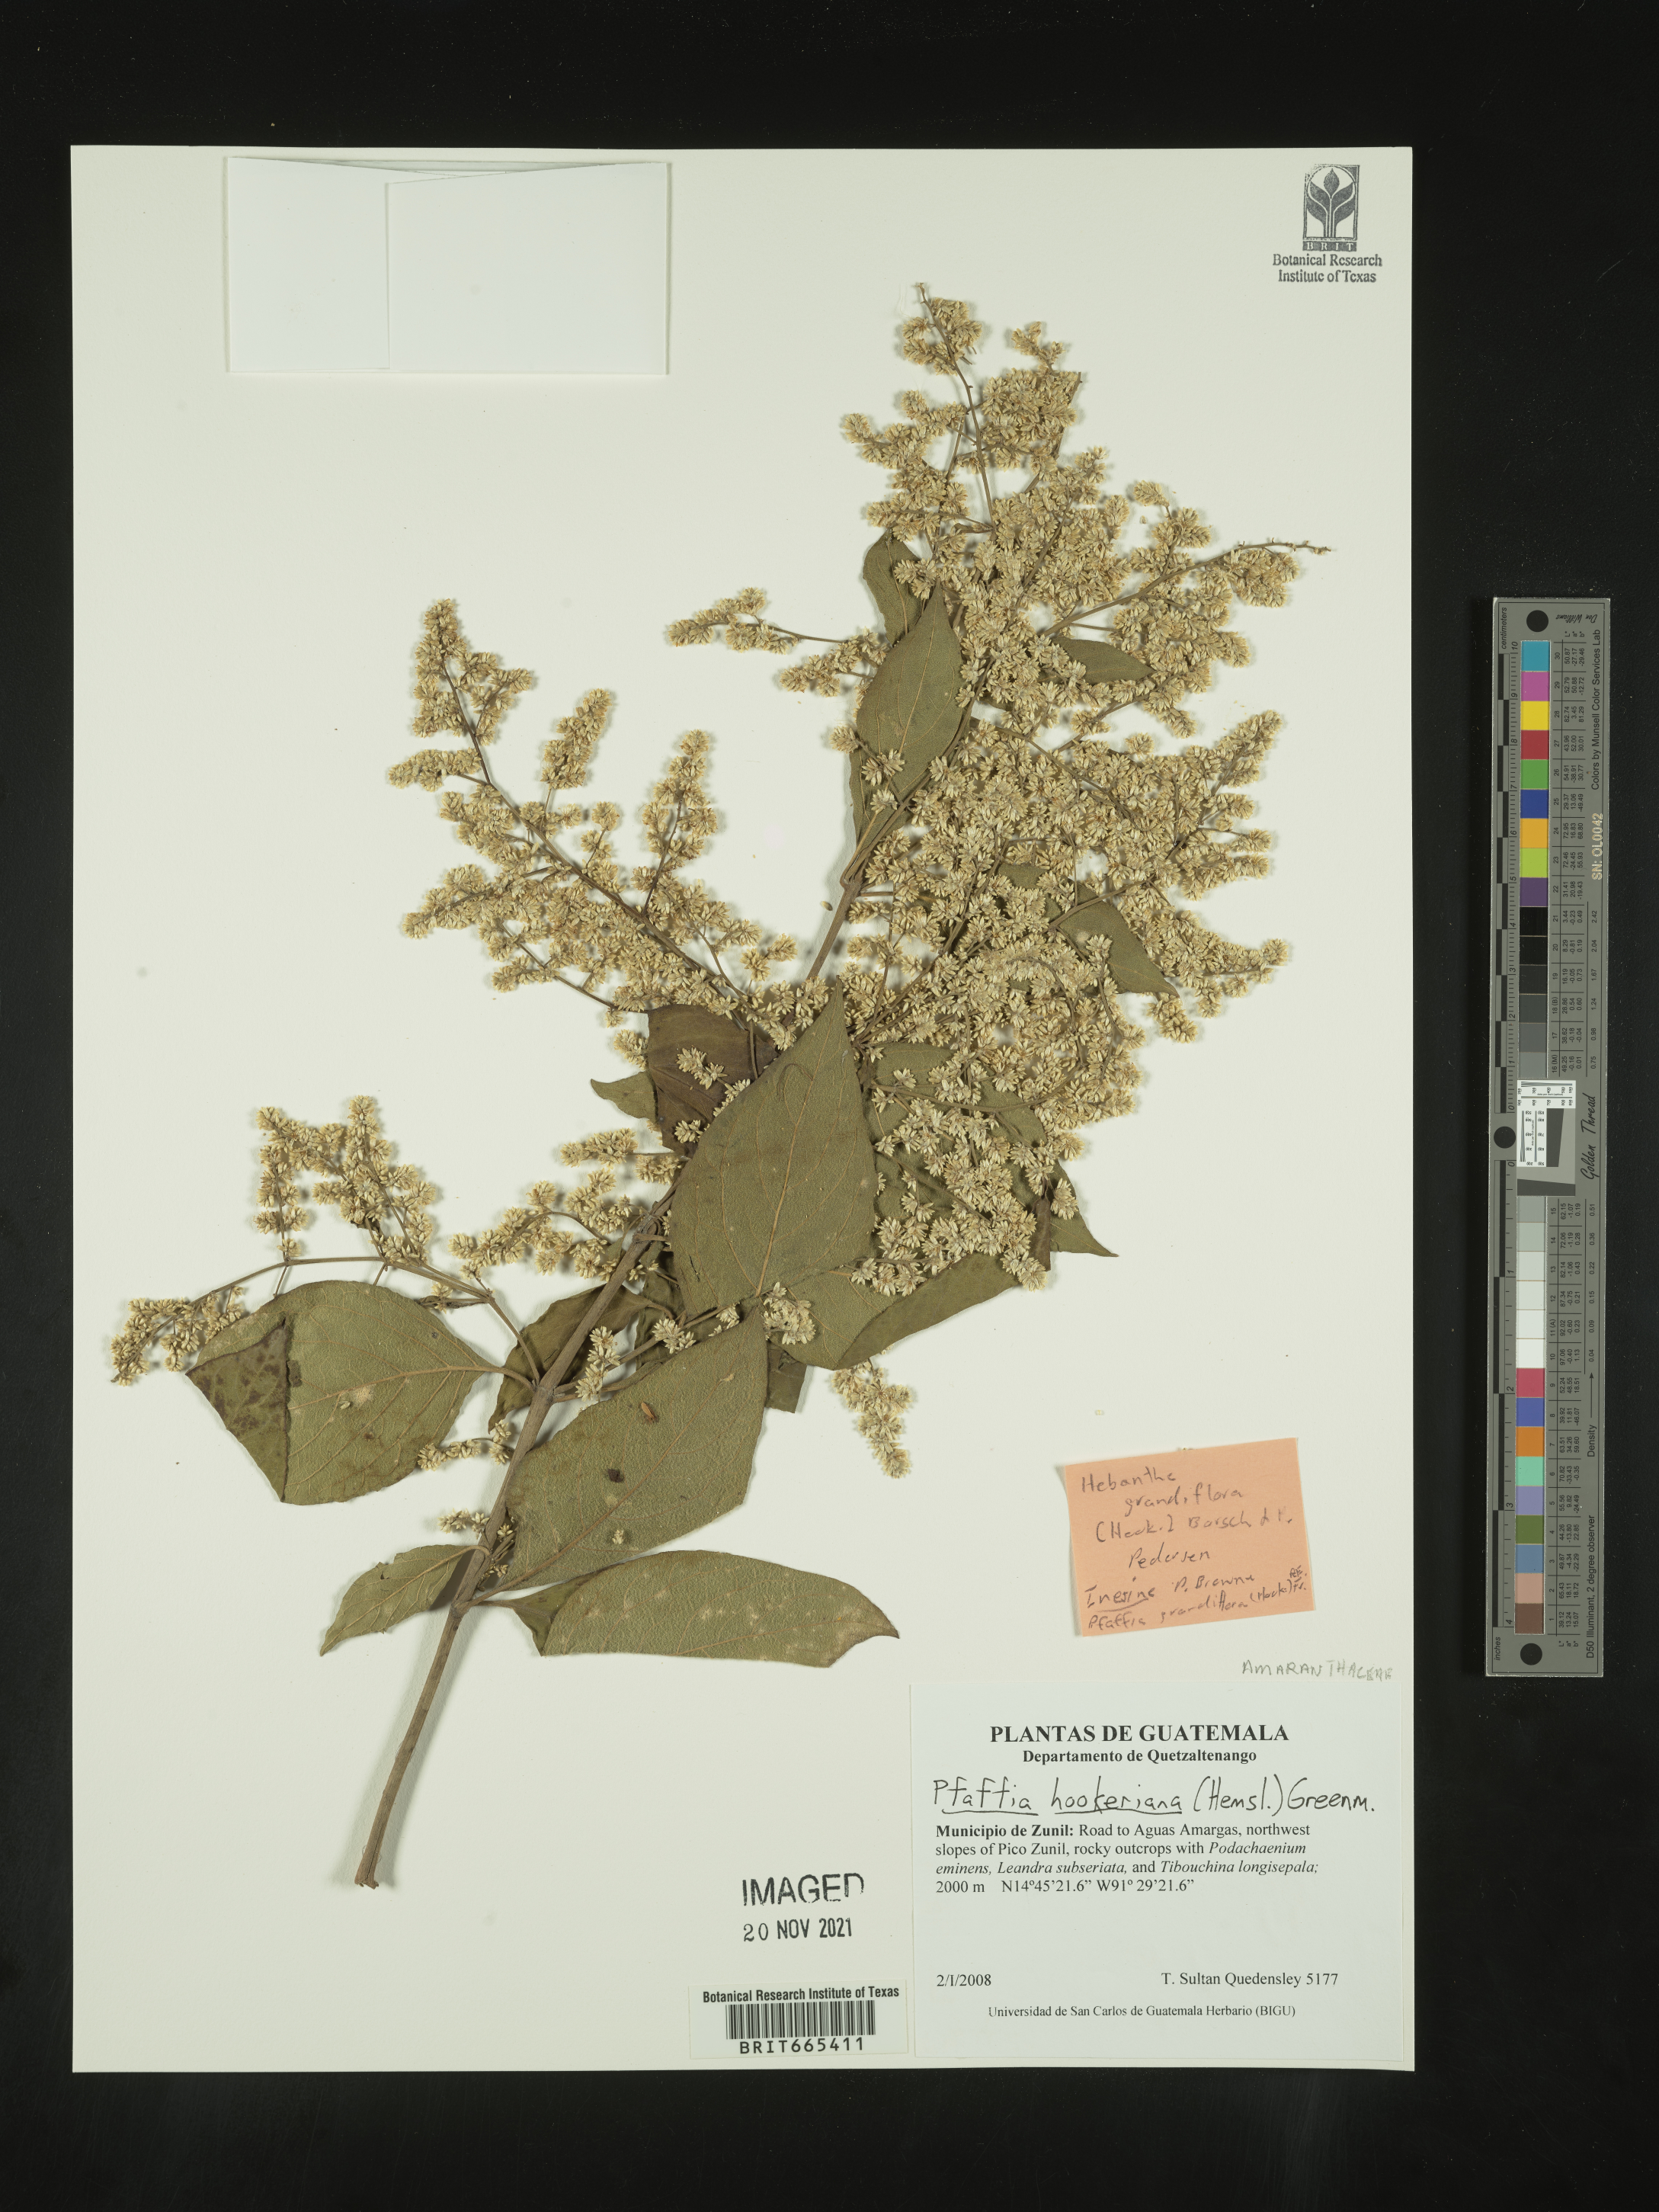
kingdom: Plantae
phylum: Tracheophyta
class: Magnoliopsida
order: Caryophyllales
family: Amaranthaceae
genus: Pfaffia
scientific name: Pfaffia
